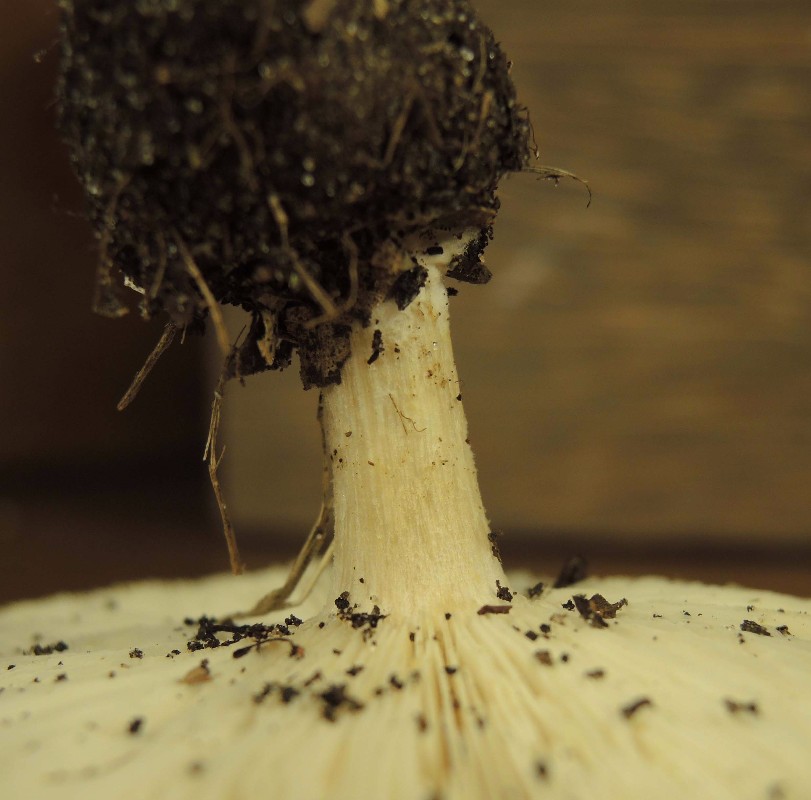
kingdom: Fungi
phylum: Basidiomycota
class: Agaricomycetes
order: Agaricales
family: Tricholomataceae
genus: Melanoleuca
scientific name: Melanoleuca grammopodia
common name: stribestokket munkehat
